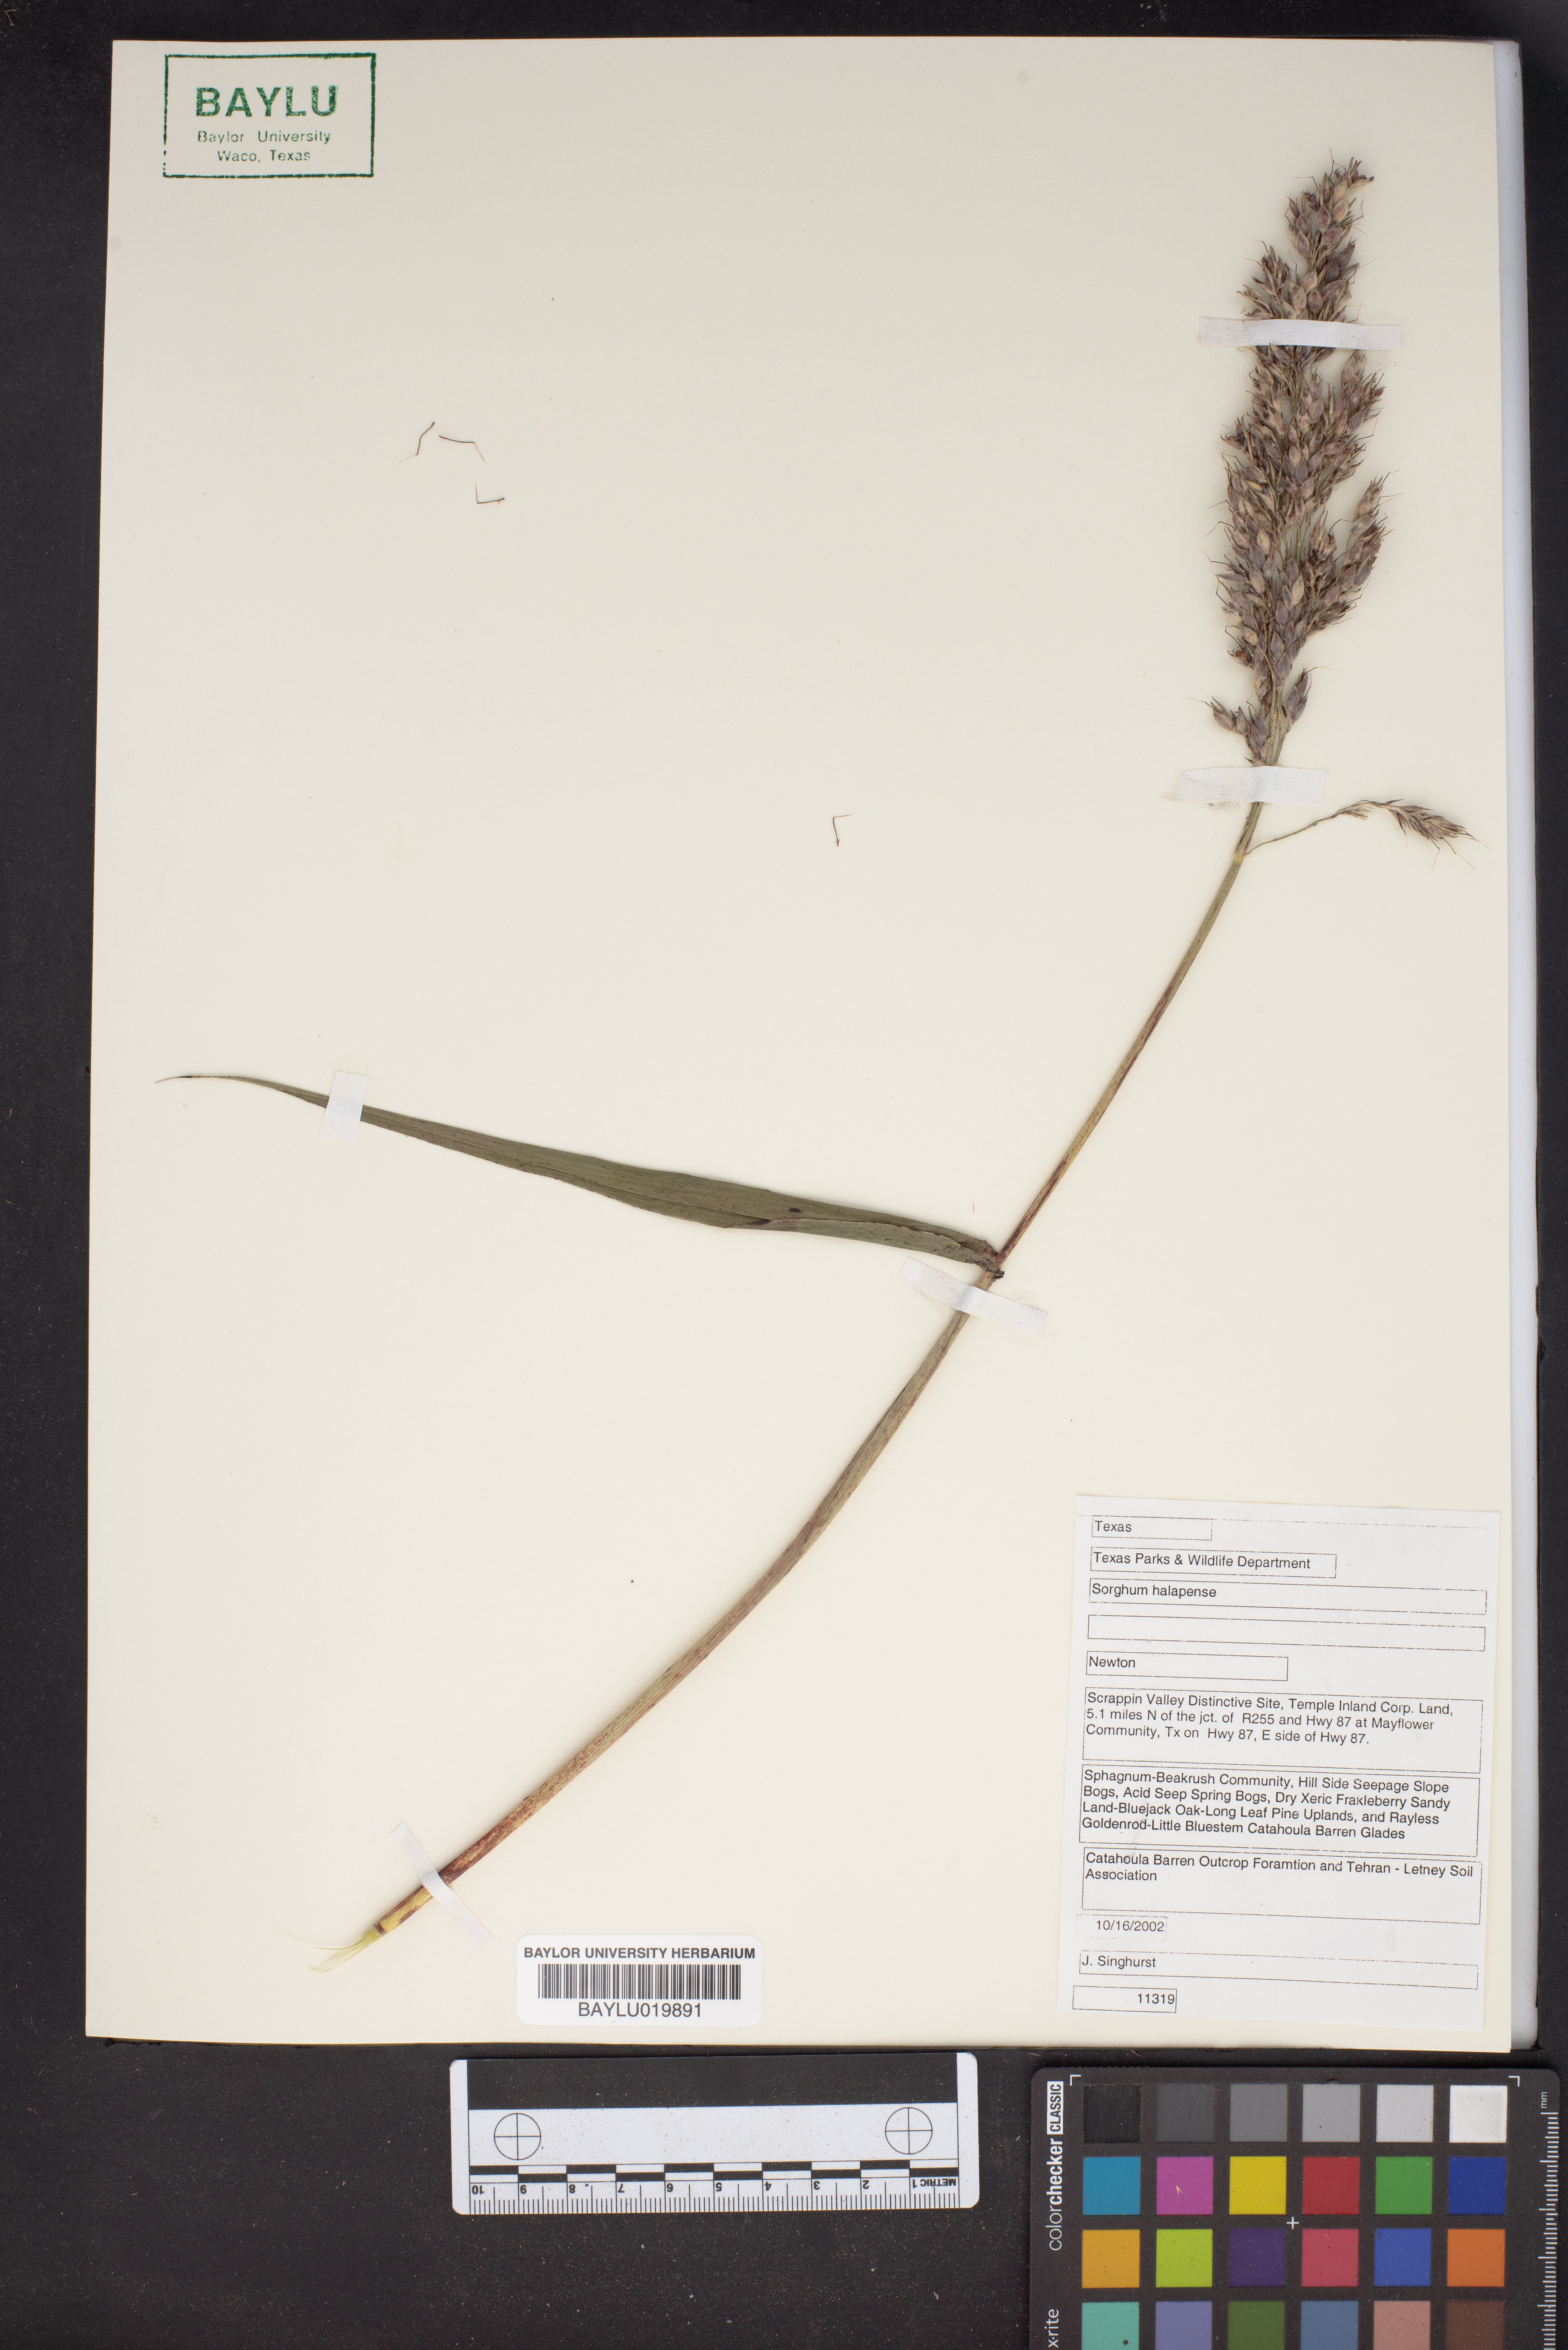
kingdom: Plantae
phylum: Tracheophyta
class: Liliopsida
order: Poales
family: Poaceae
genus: Sorghum
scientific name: Sorghum halepense
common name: Johnson-grass
